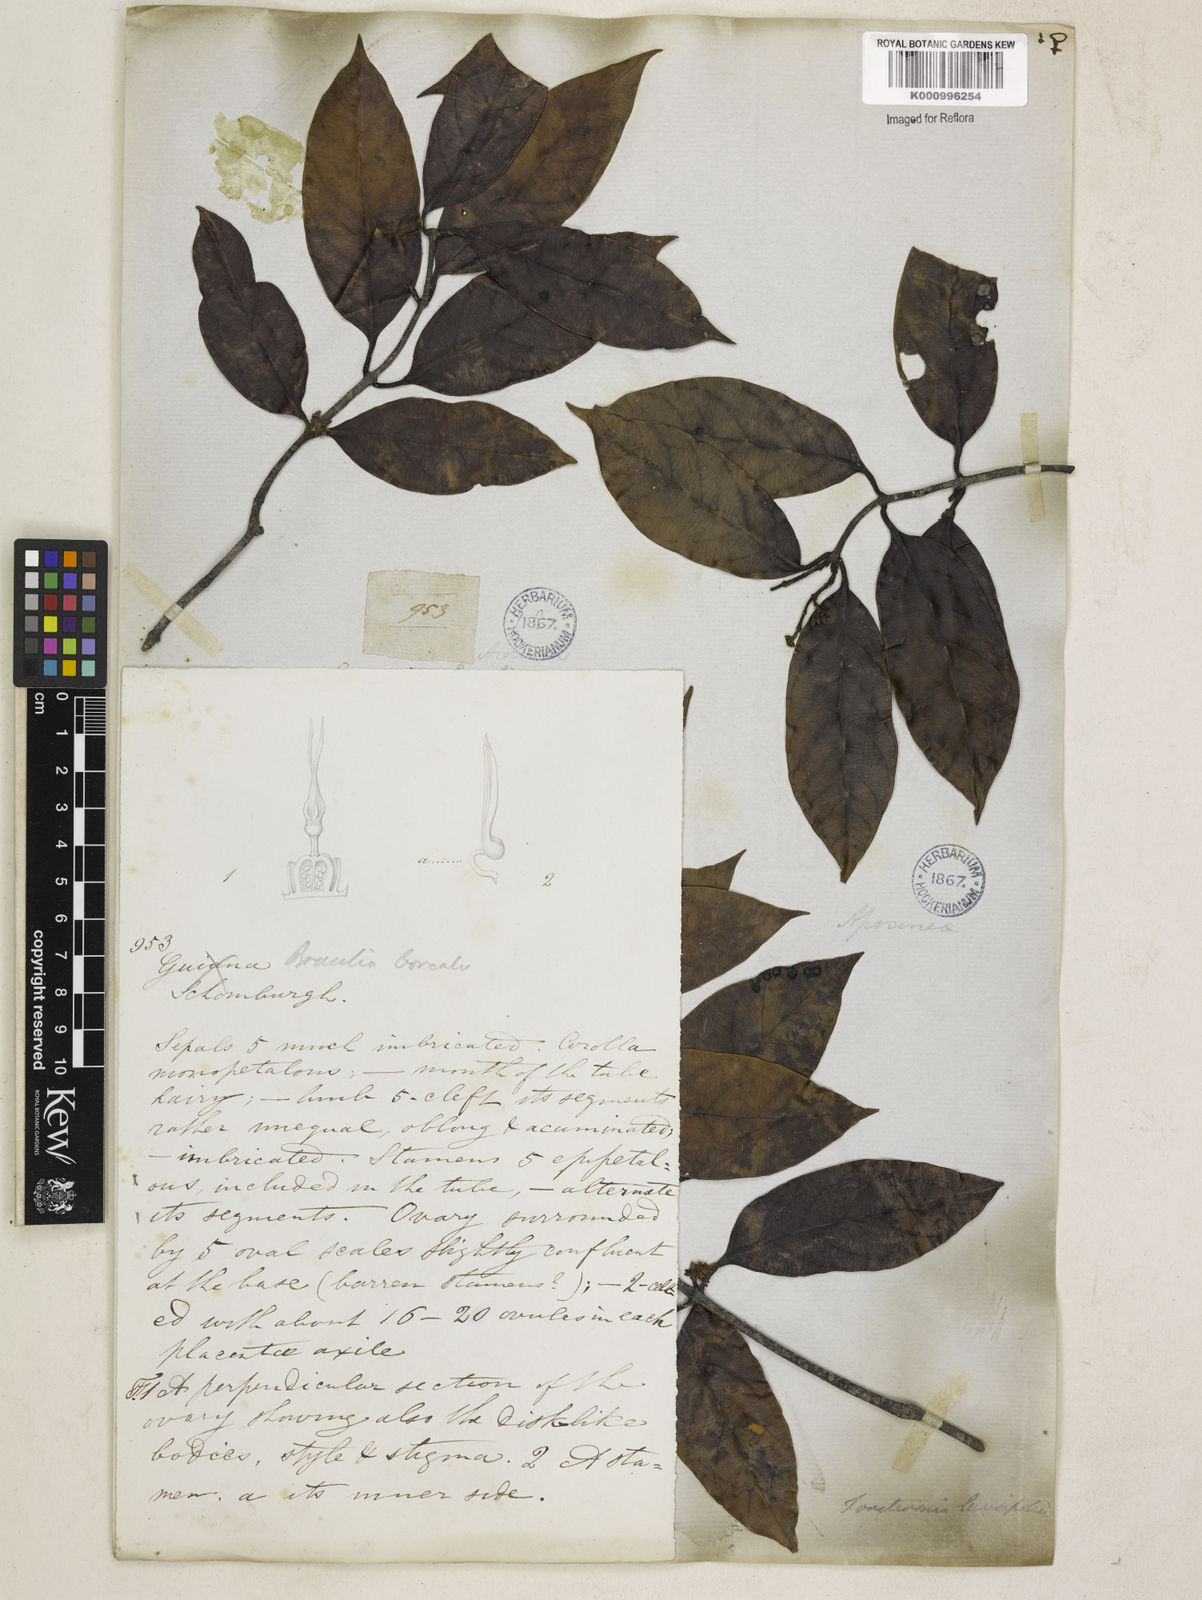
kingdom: Plantae
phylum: Tracheophyta
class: Magnoliopsida
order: Gentianales
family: Apocynaceae
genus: Forsteronia
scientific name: Forsteronia laurifolia
